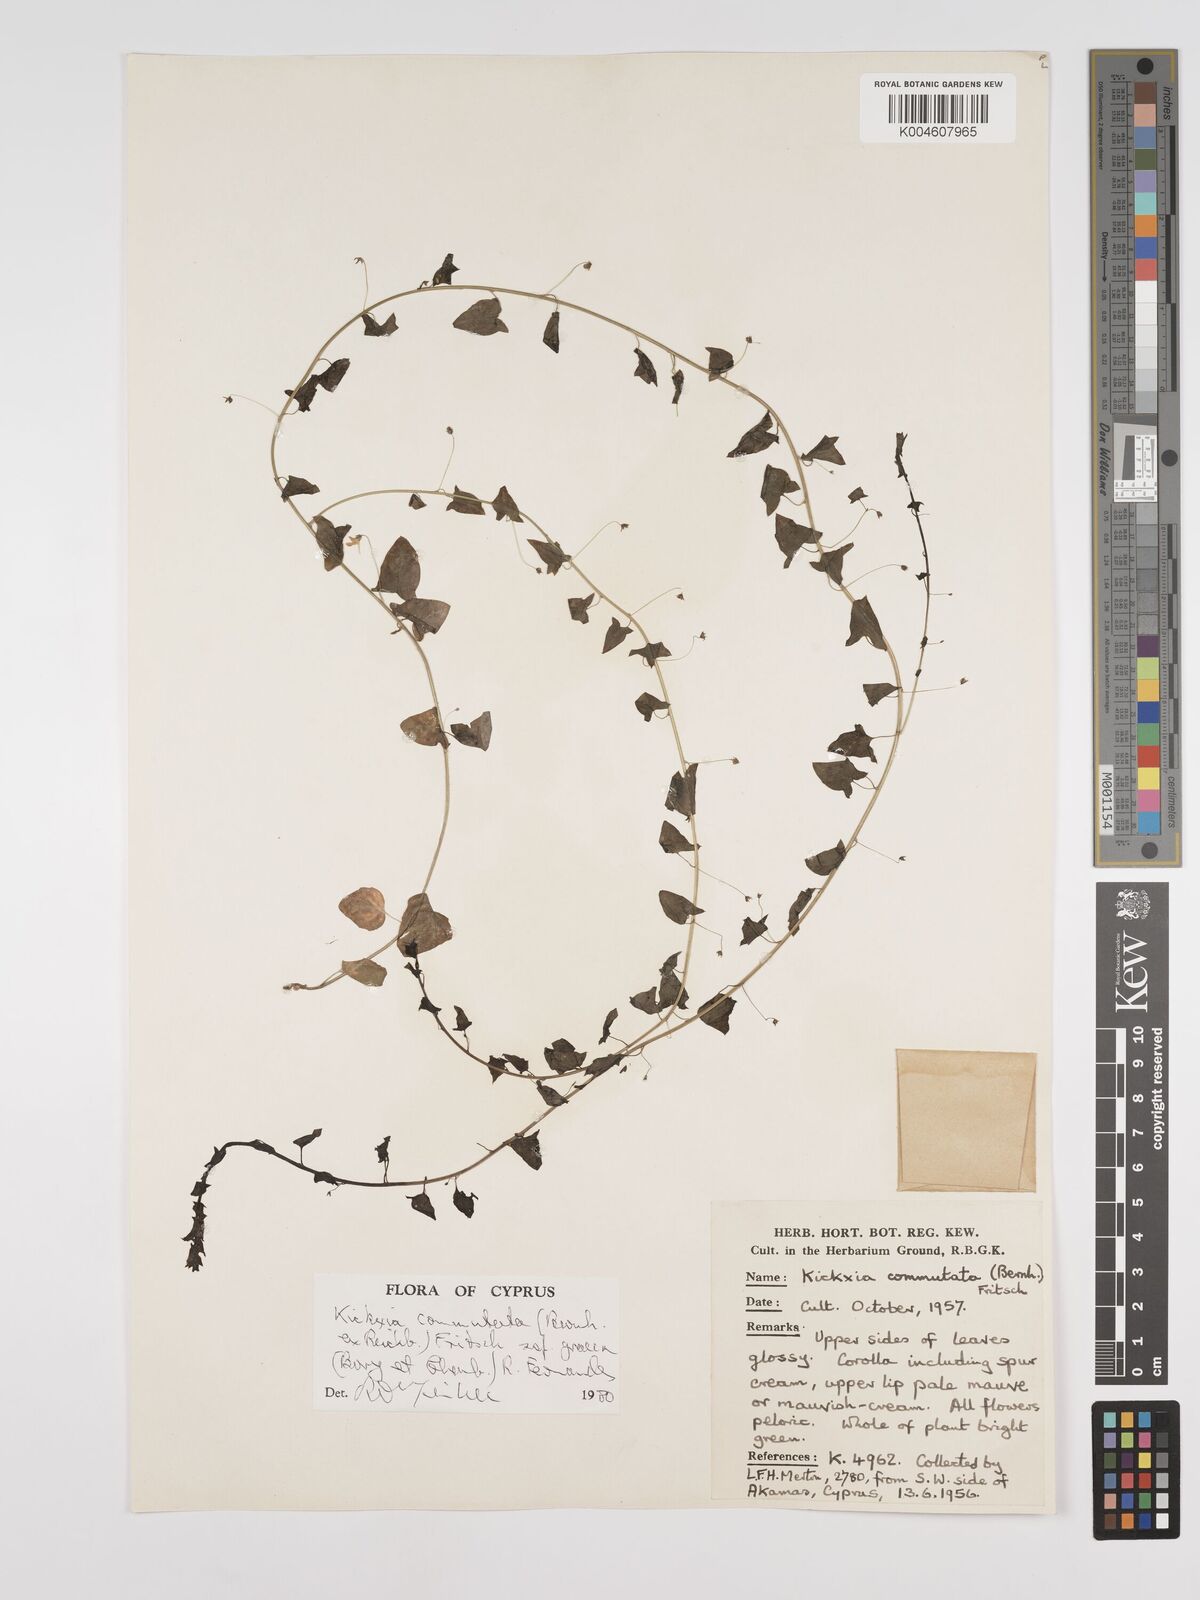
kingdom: Plantae
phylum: Tracheophyta
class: Magnoliopsida
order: Lamiales
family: Plantaginaceae
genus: Kickxia
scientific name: Kickxia commutata
